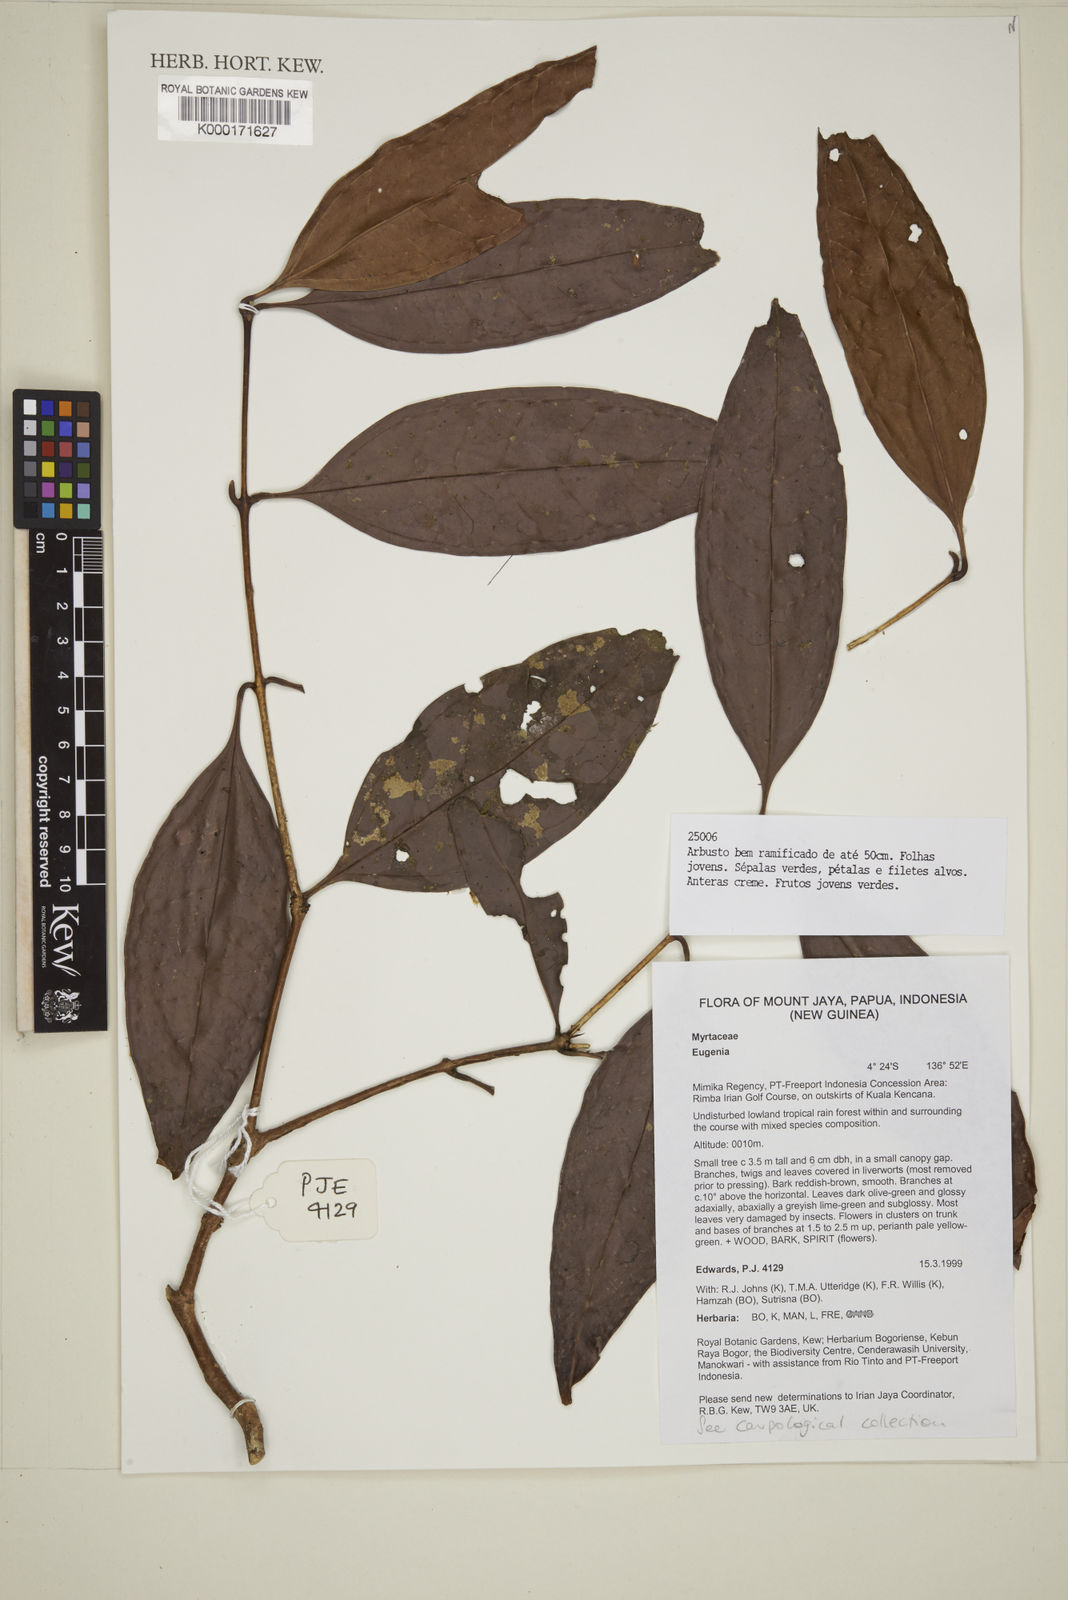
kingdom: Plantae
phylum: Tracheophyta
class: Magnoliopsida
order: Myrtales
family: Myrtaceae
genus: Eugenia
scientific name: Eugenia
